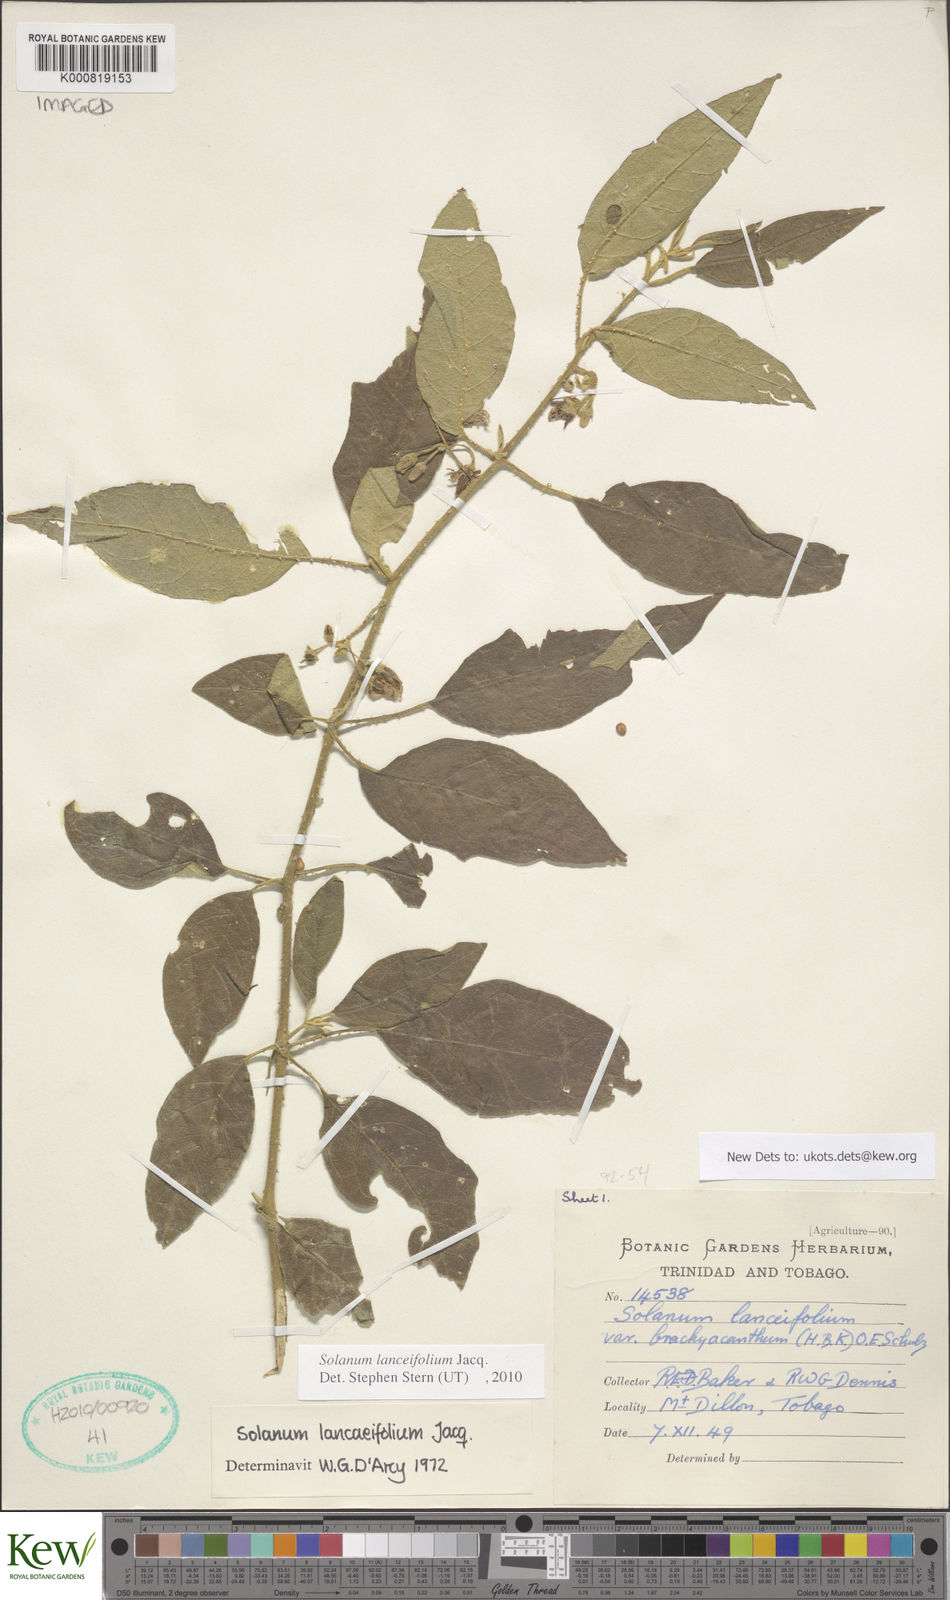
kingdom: Plantae
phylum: Tracheophyta
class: Magnoliopsida
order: Solanales
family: Solanaceae
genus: Solanum
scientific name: Solanum lanceifolium
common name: Lanceleaf nightshade
